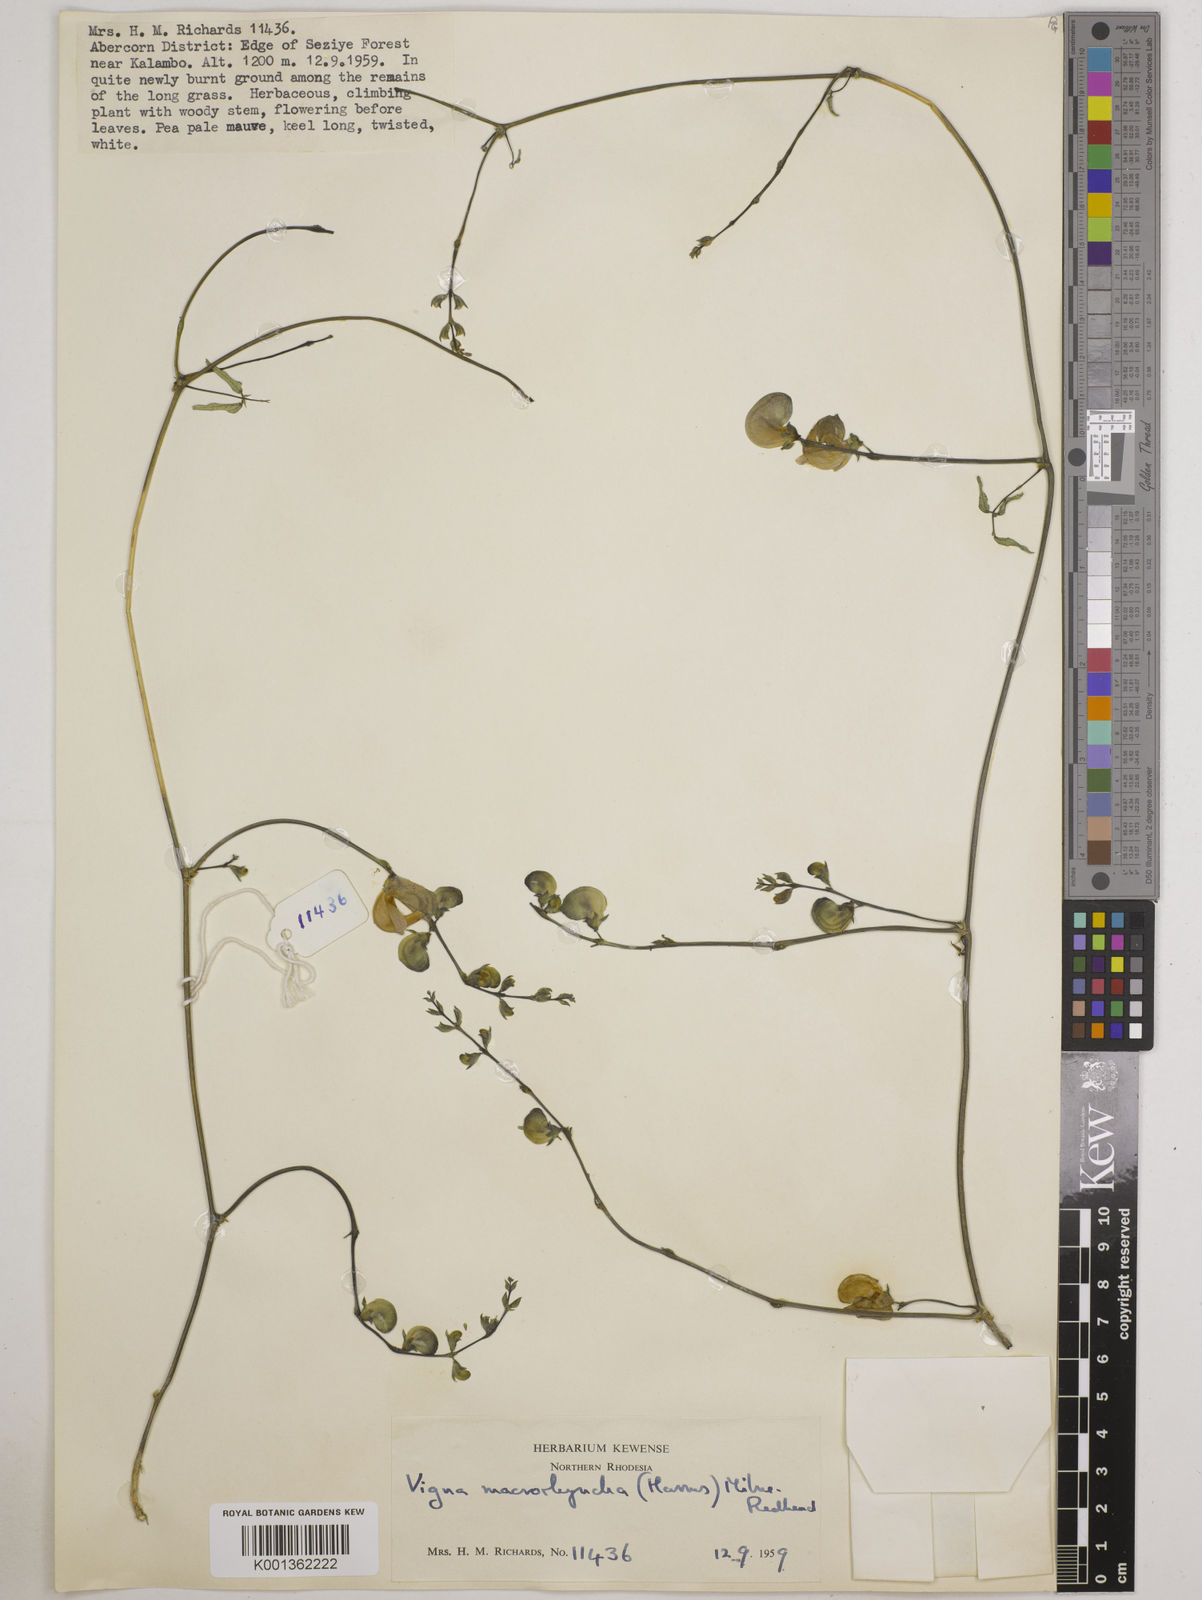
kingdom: Plantae
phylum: Tracheophyta
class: Magnoliopsida
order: Fabales
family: Fabaceae
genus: Wajira
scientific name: Wajira grahamiana
